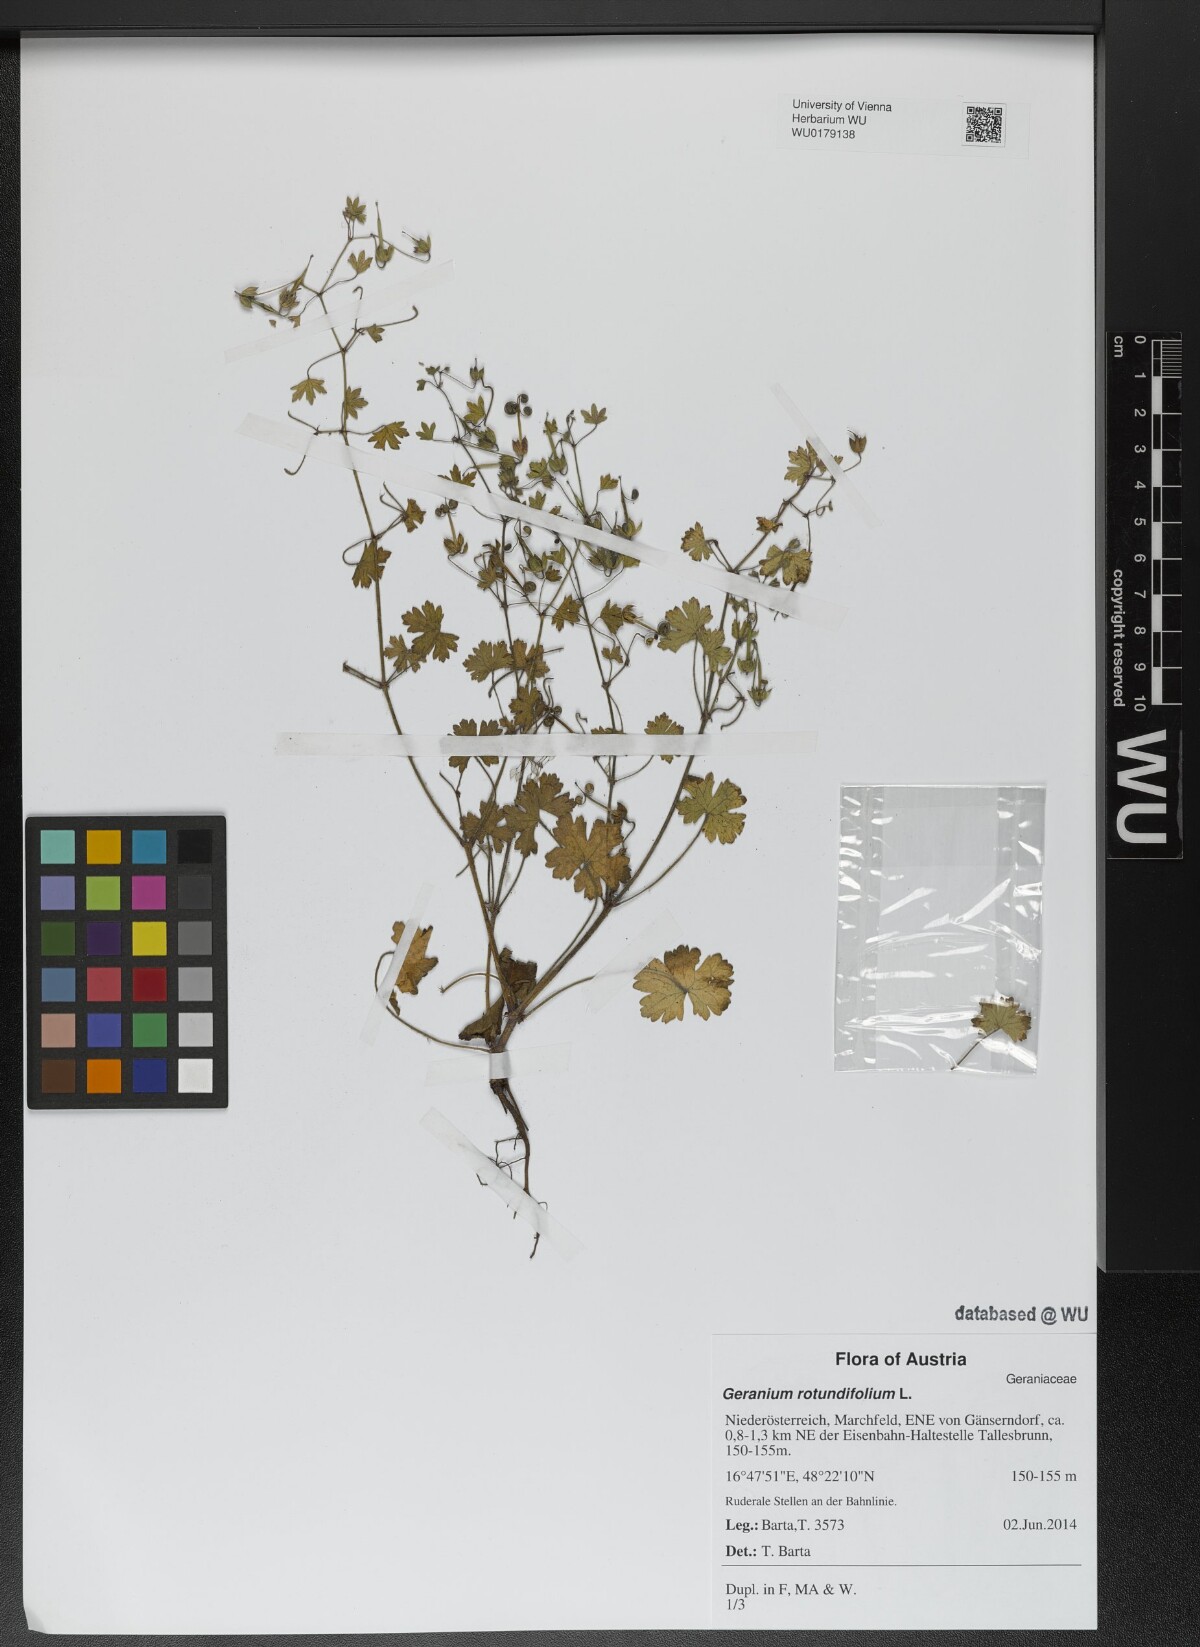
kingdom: Plantae
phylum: Tracheophyta
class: Magnoliopsida
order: Geraniales
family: Geraniaceae
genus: Geranium
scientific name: Geranium rotundifolium
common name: Round-leaved crane's-bill
